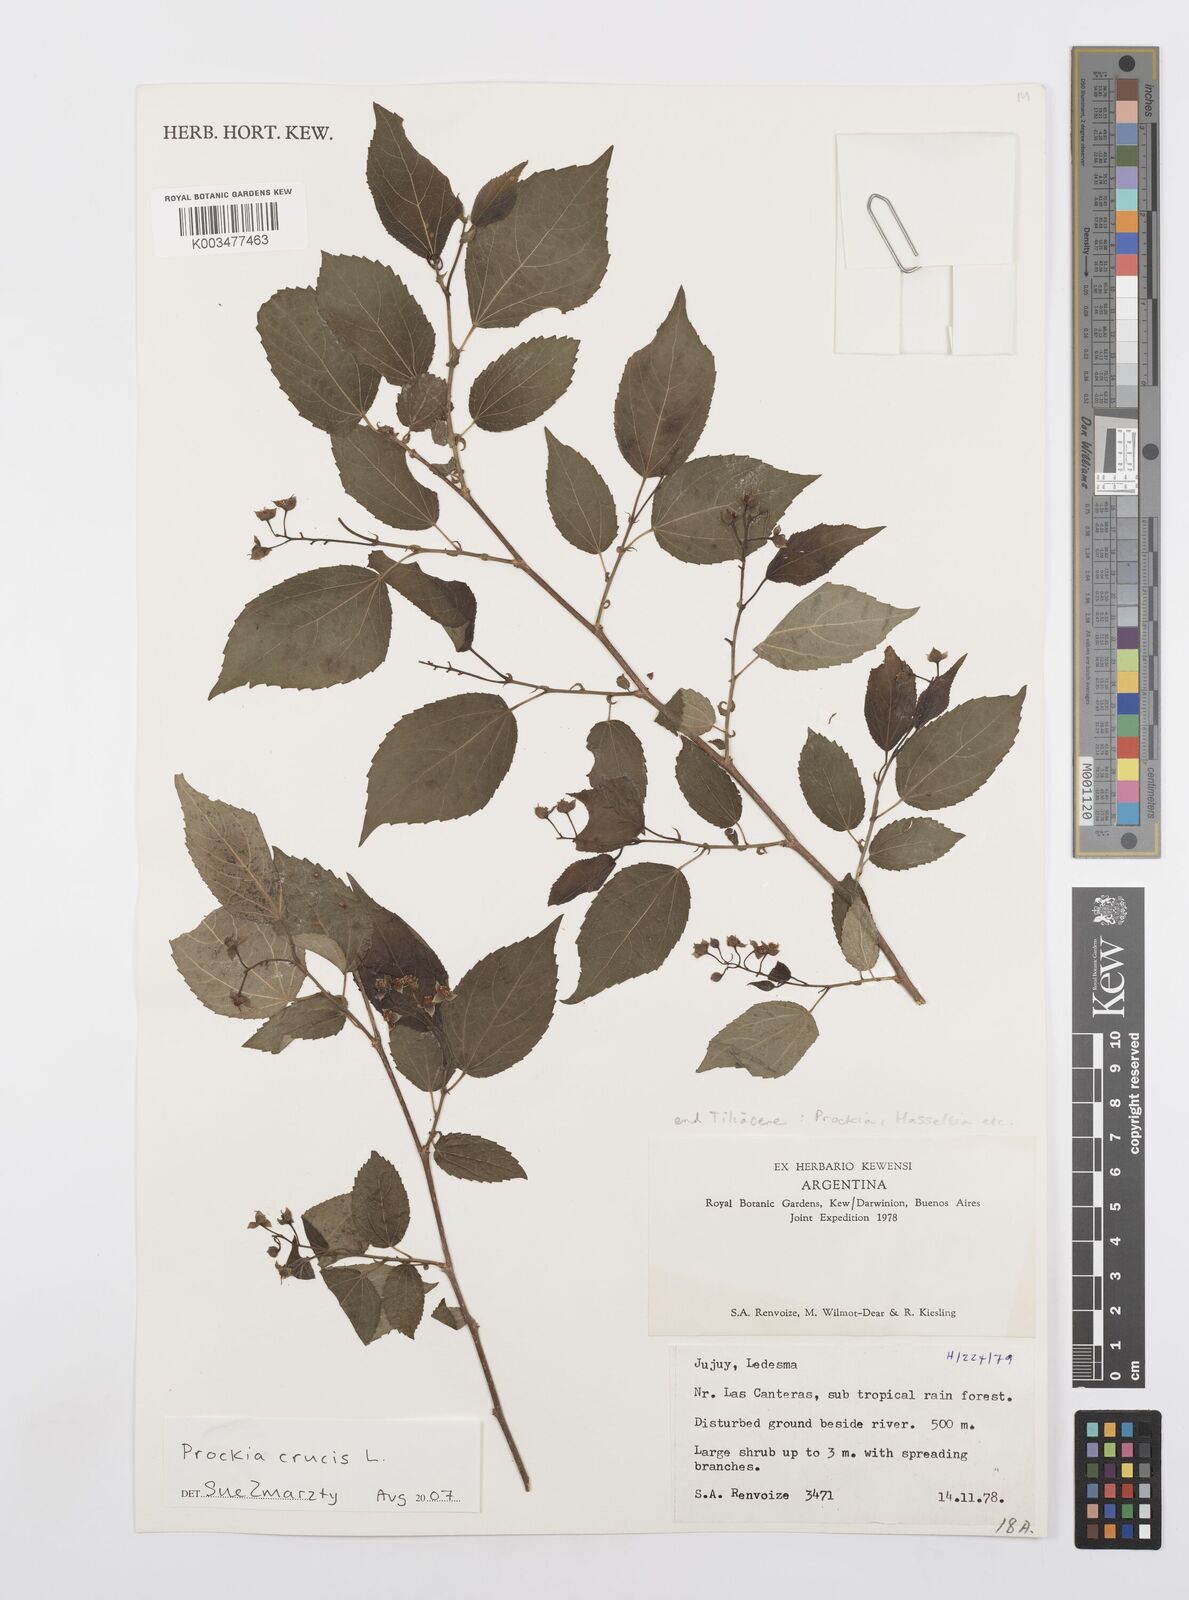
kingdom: Plantae
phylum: Tracheophyta
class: Magnoliopsida
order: Malpighiales
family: Salicaceae
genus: Prockia
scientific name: Prockia crucis
